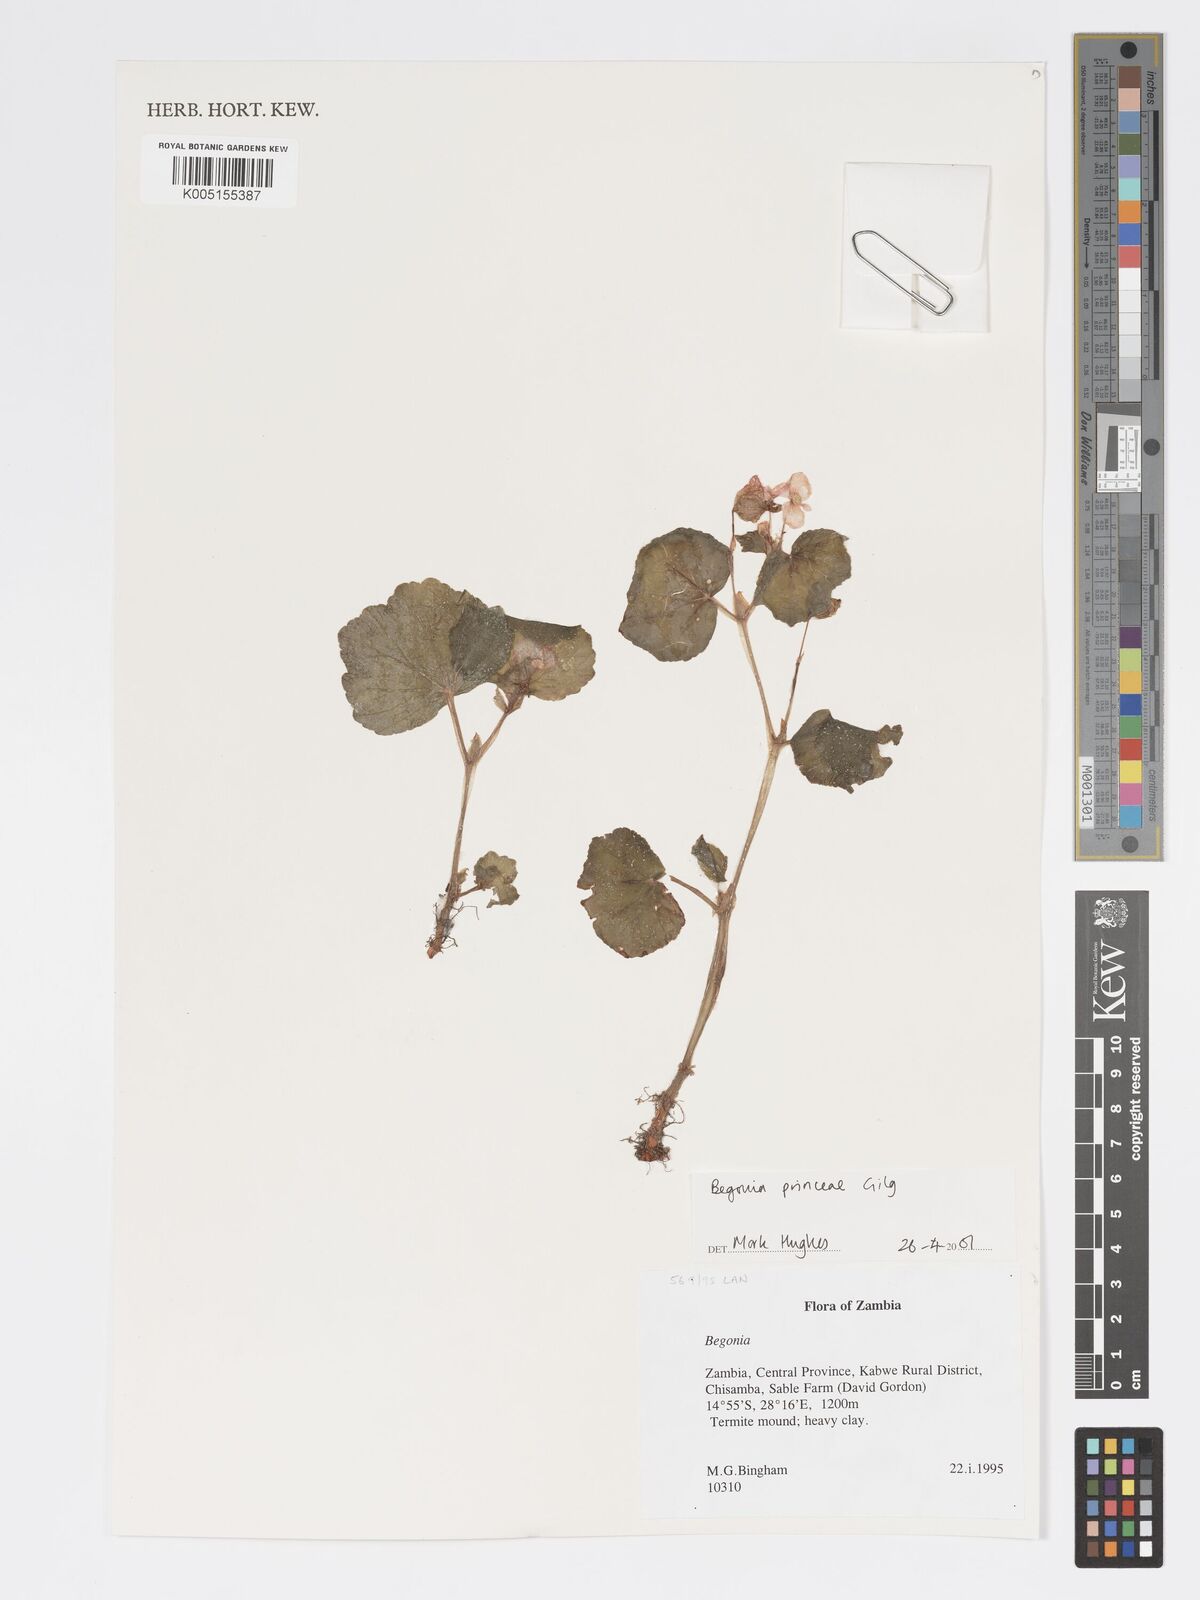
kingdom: Plantae
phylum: Tracheophyta
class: Magnoliopsida
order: Cucurbitales
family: Begoniaceae
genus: Begonia
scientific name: Begonia
